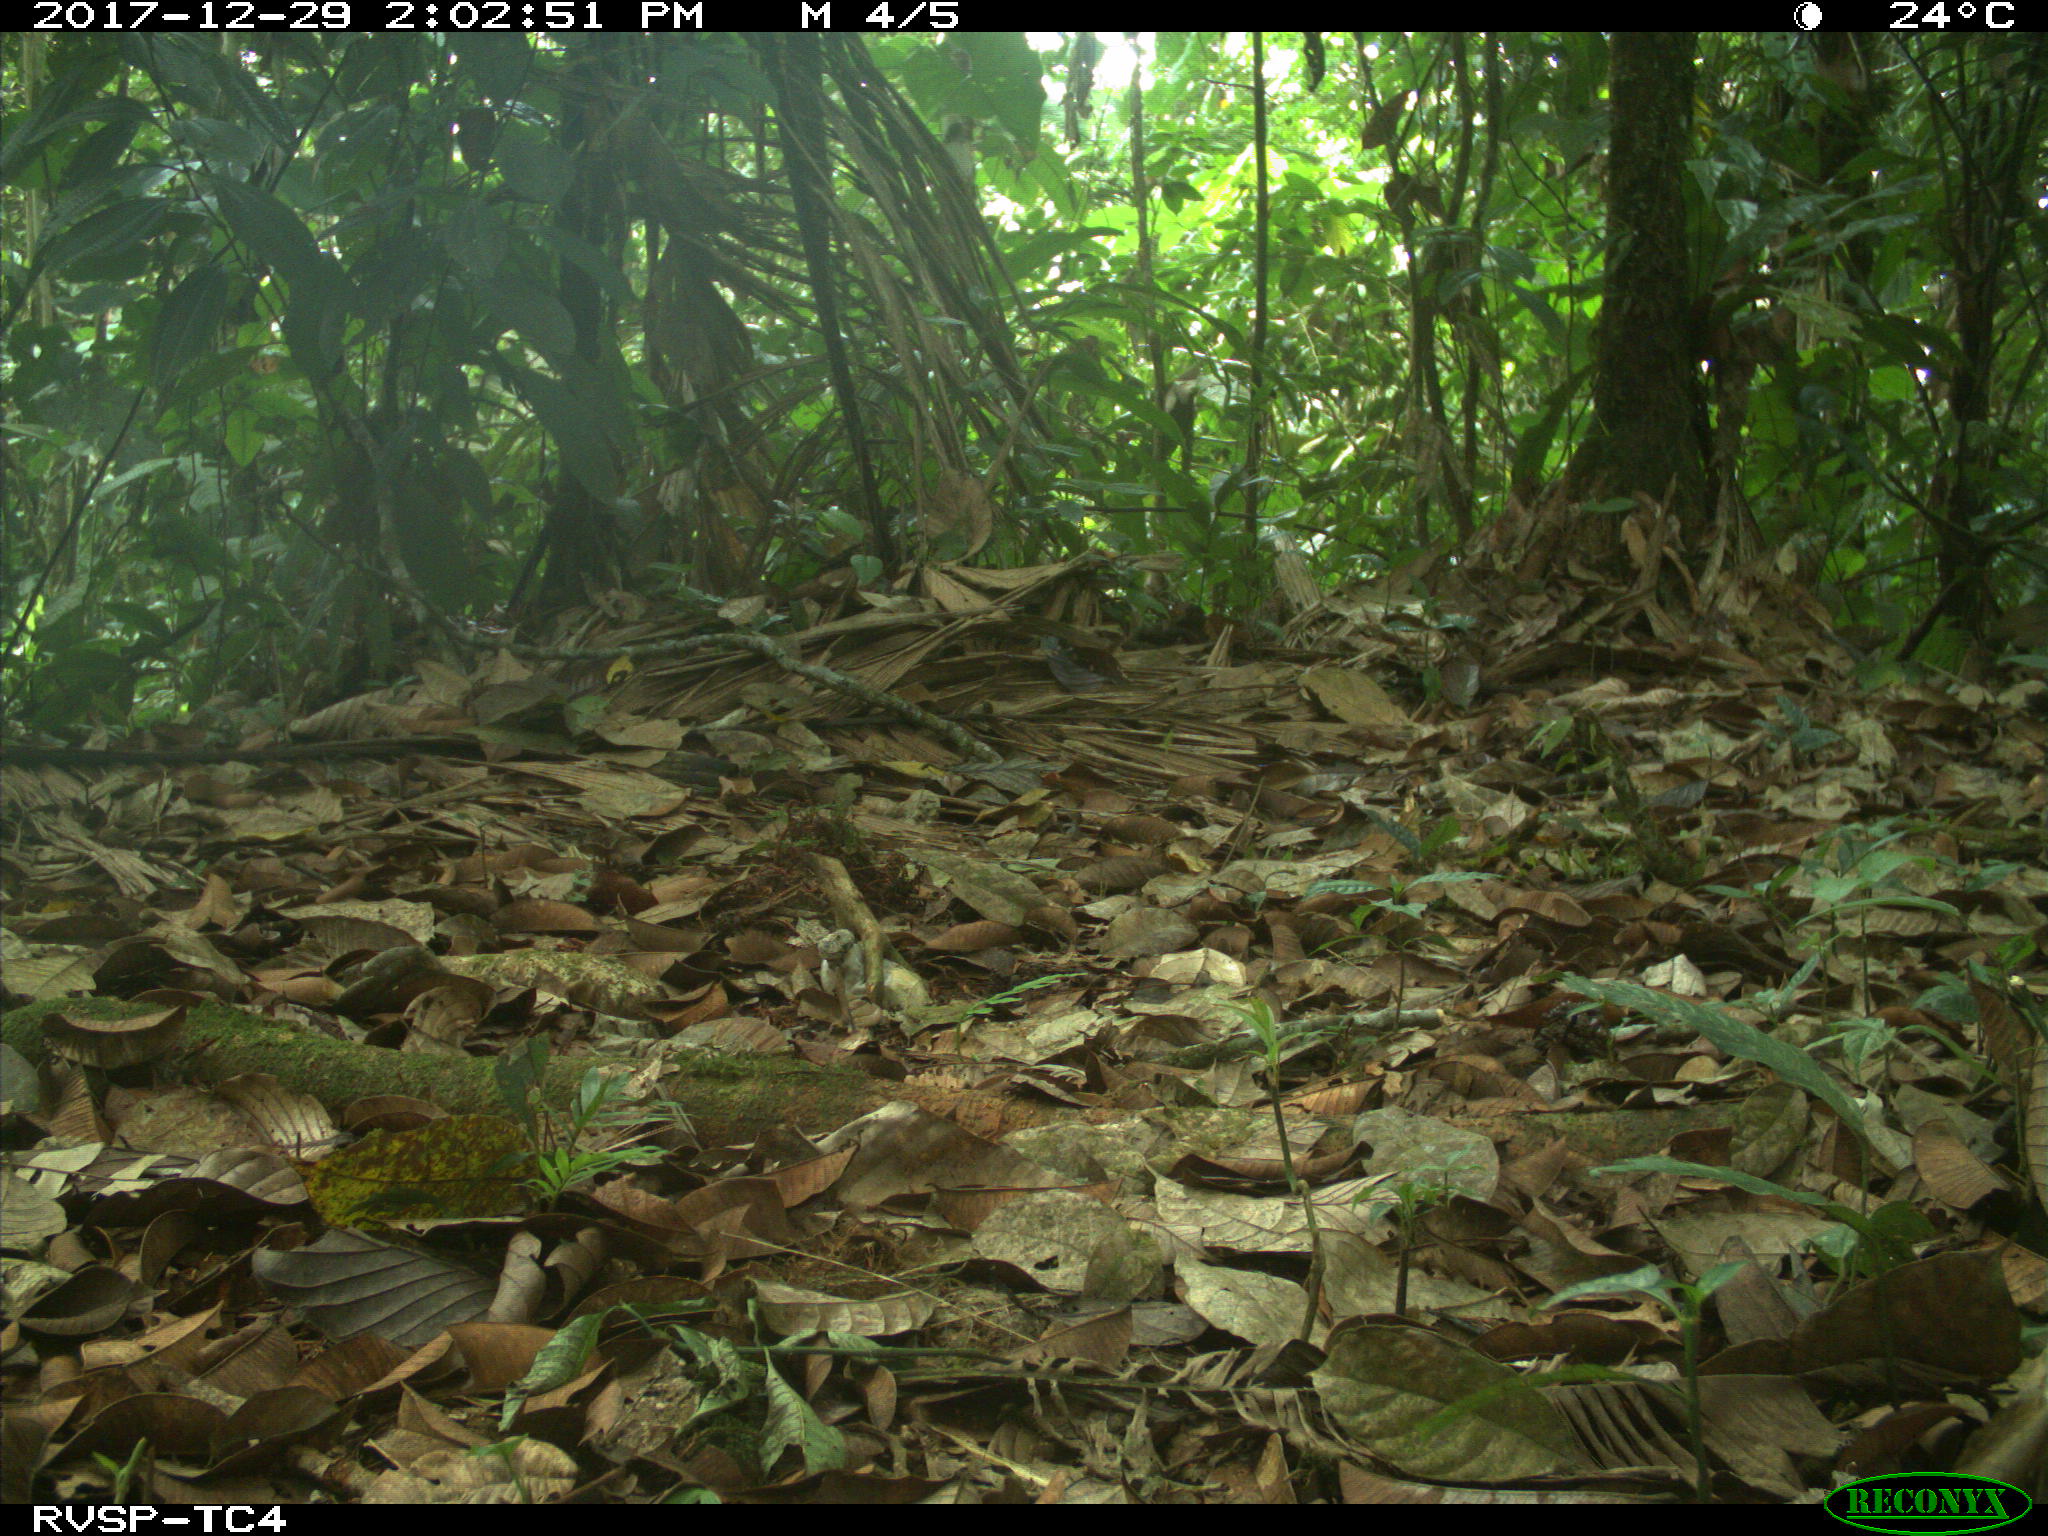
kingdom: Animalia
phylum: Chordata
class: Mammalia
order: Carnivora
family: Canidae
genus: Canis
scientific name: Canis lupus
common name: Gray wolf
